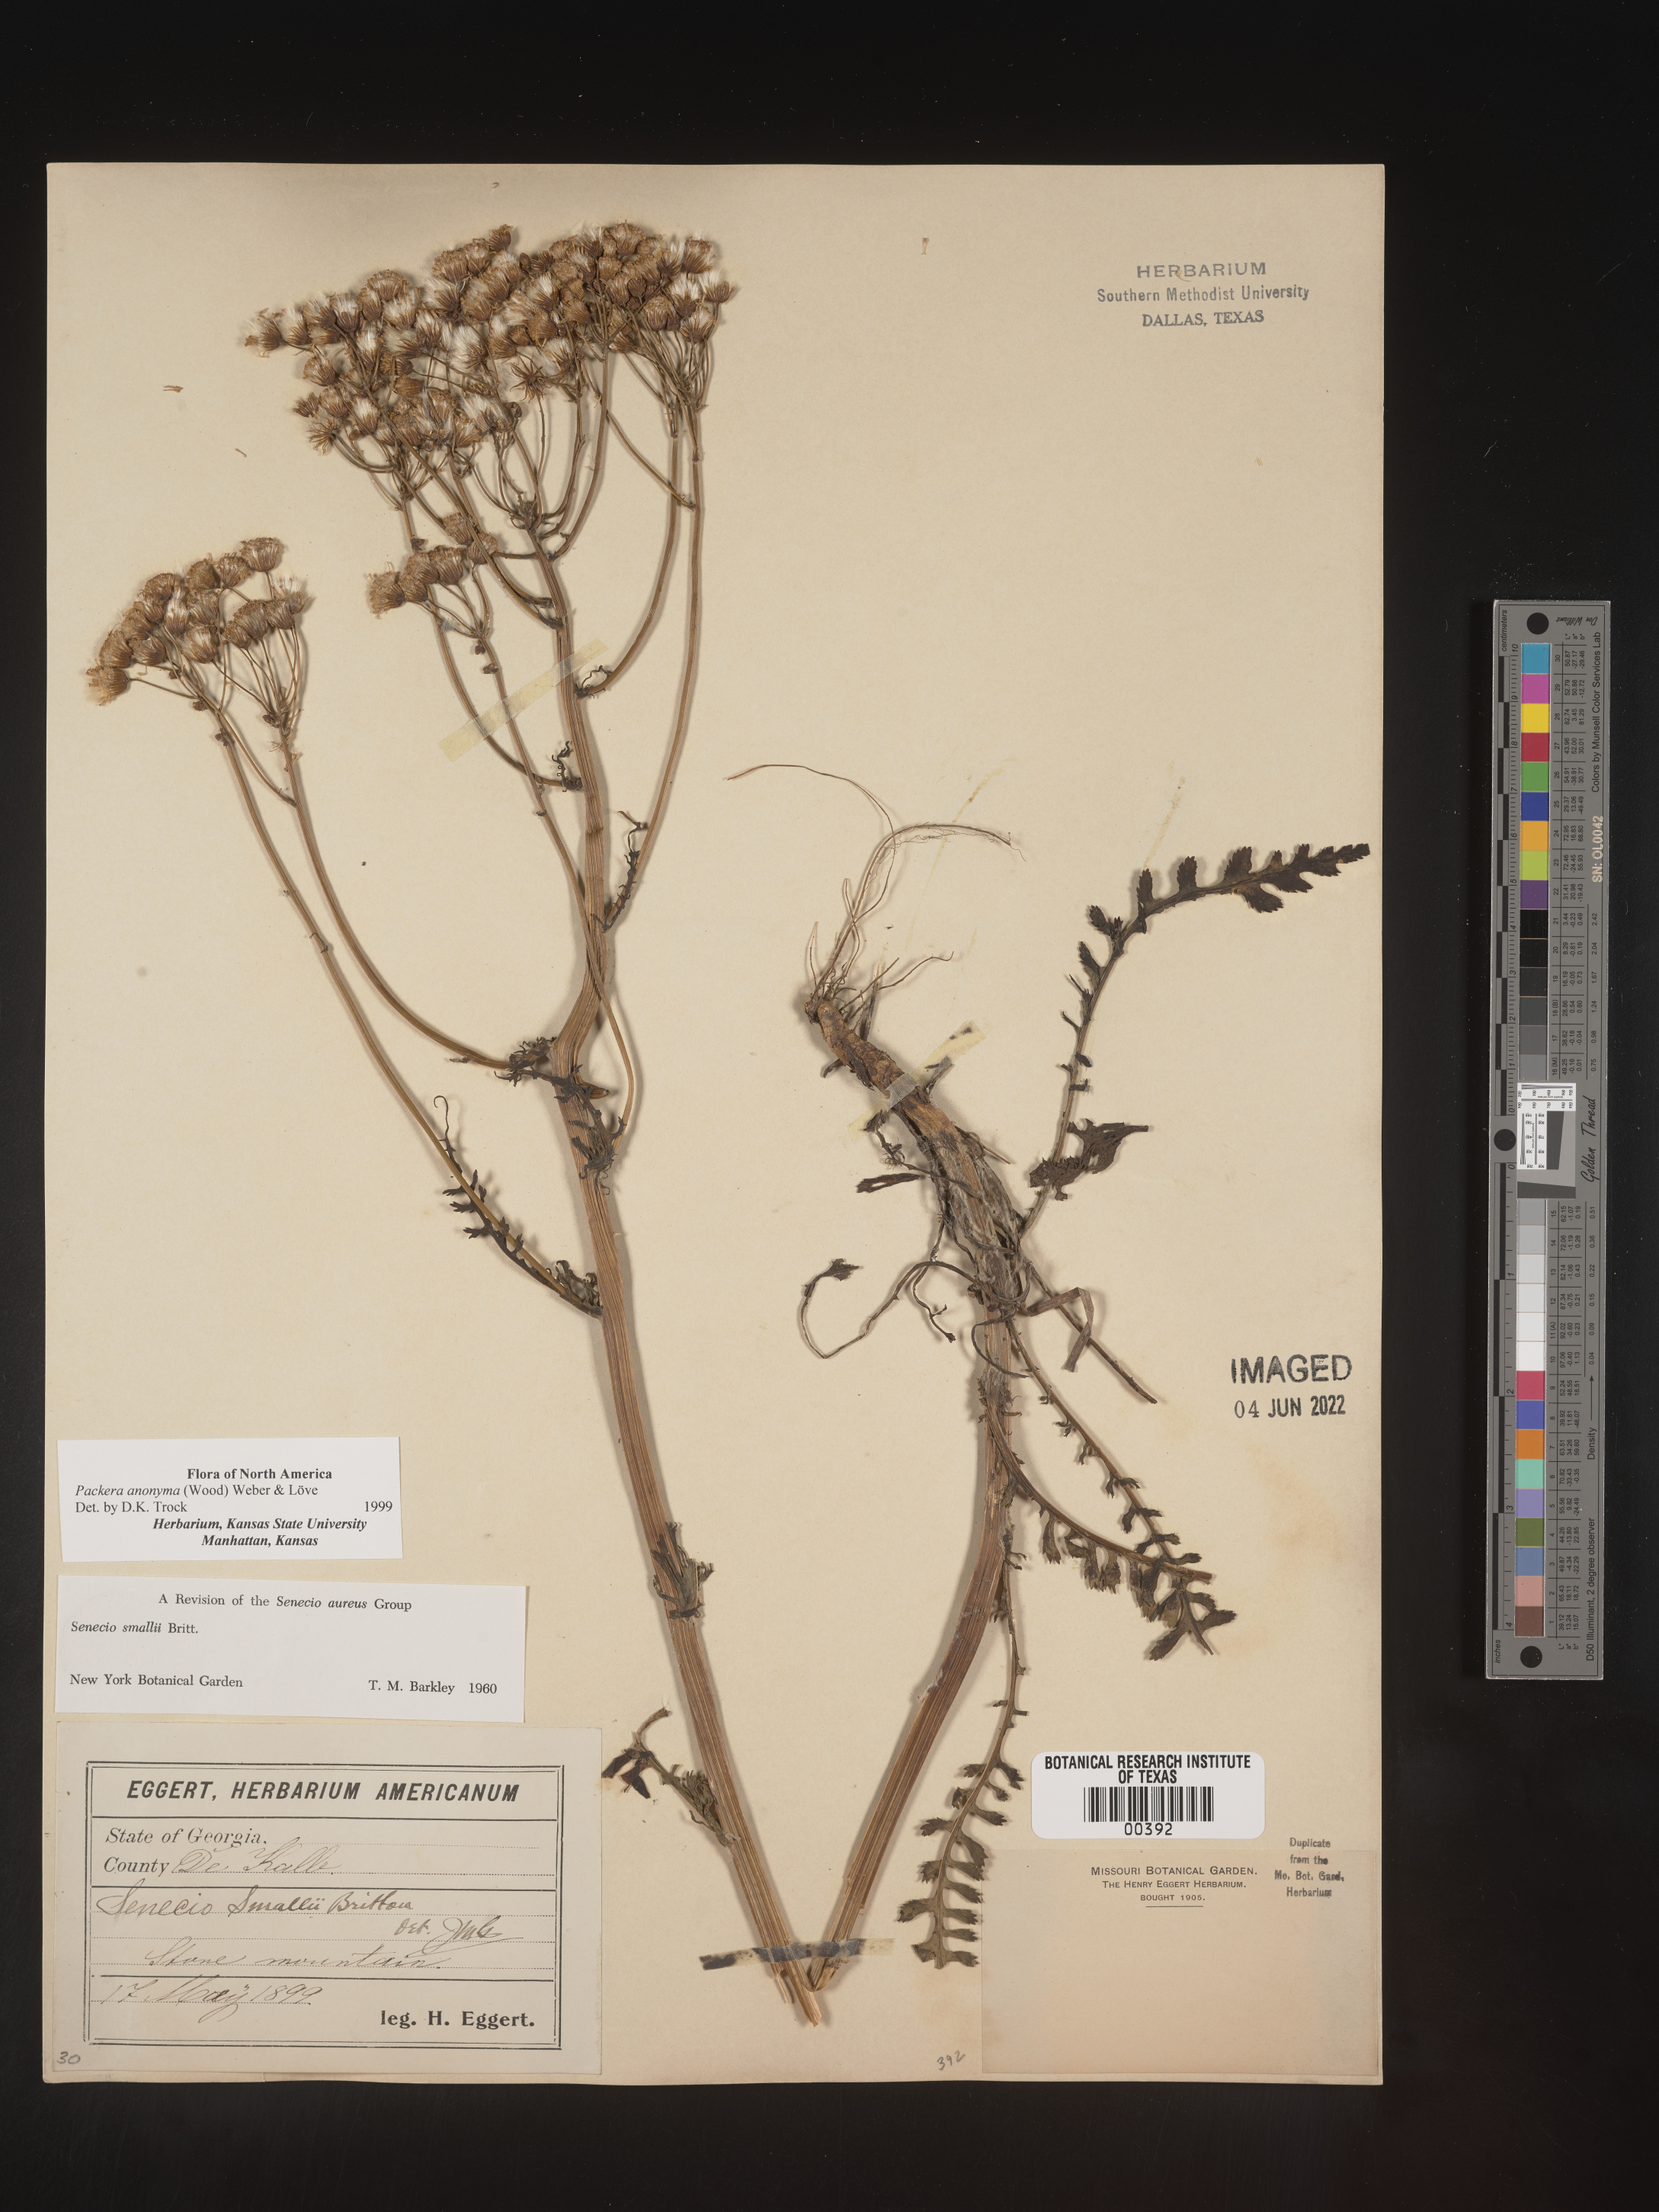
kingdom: Plantae
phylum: Tracheophyta
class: Magnoliopsida
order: Asterales
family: Asteraceae
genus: Packera
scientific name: Packera anonyma
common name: Small ragwort
